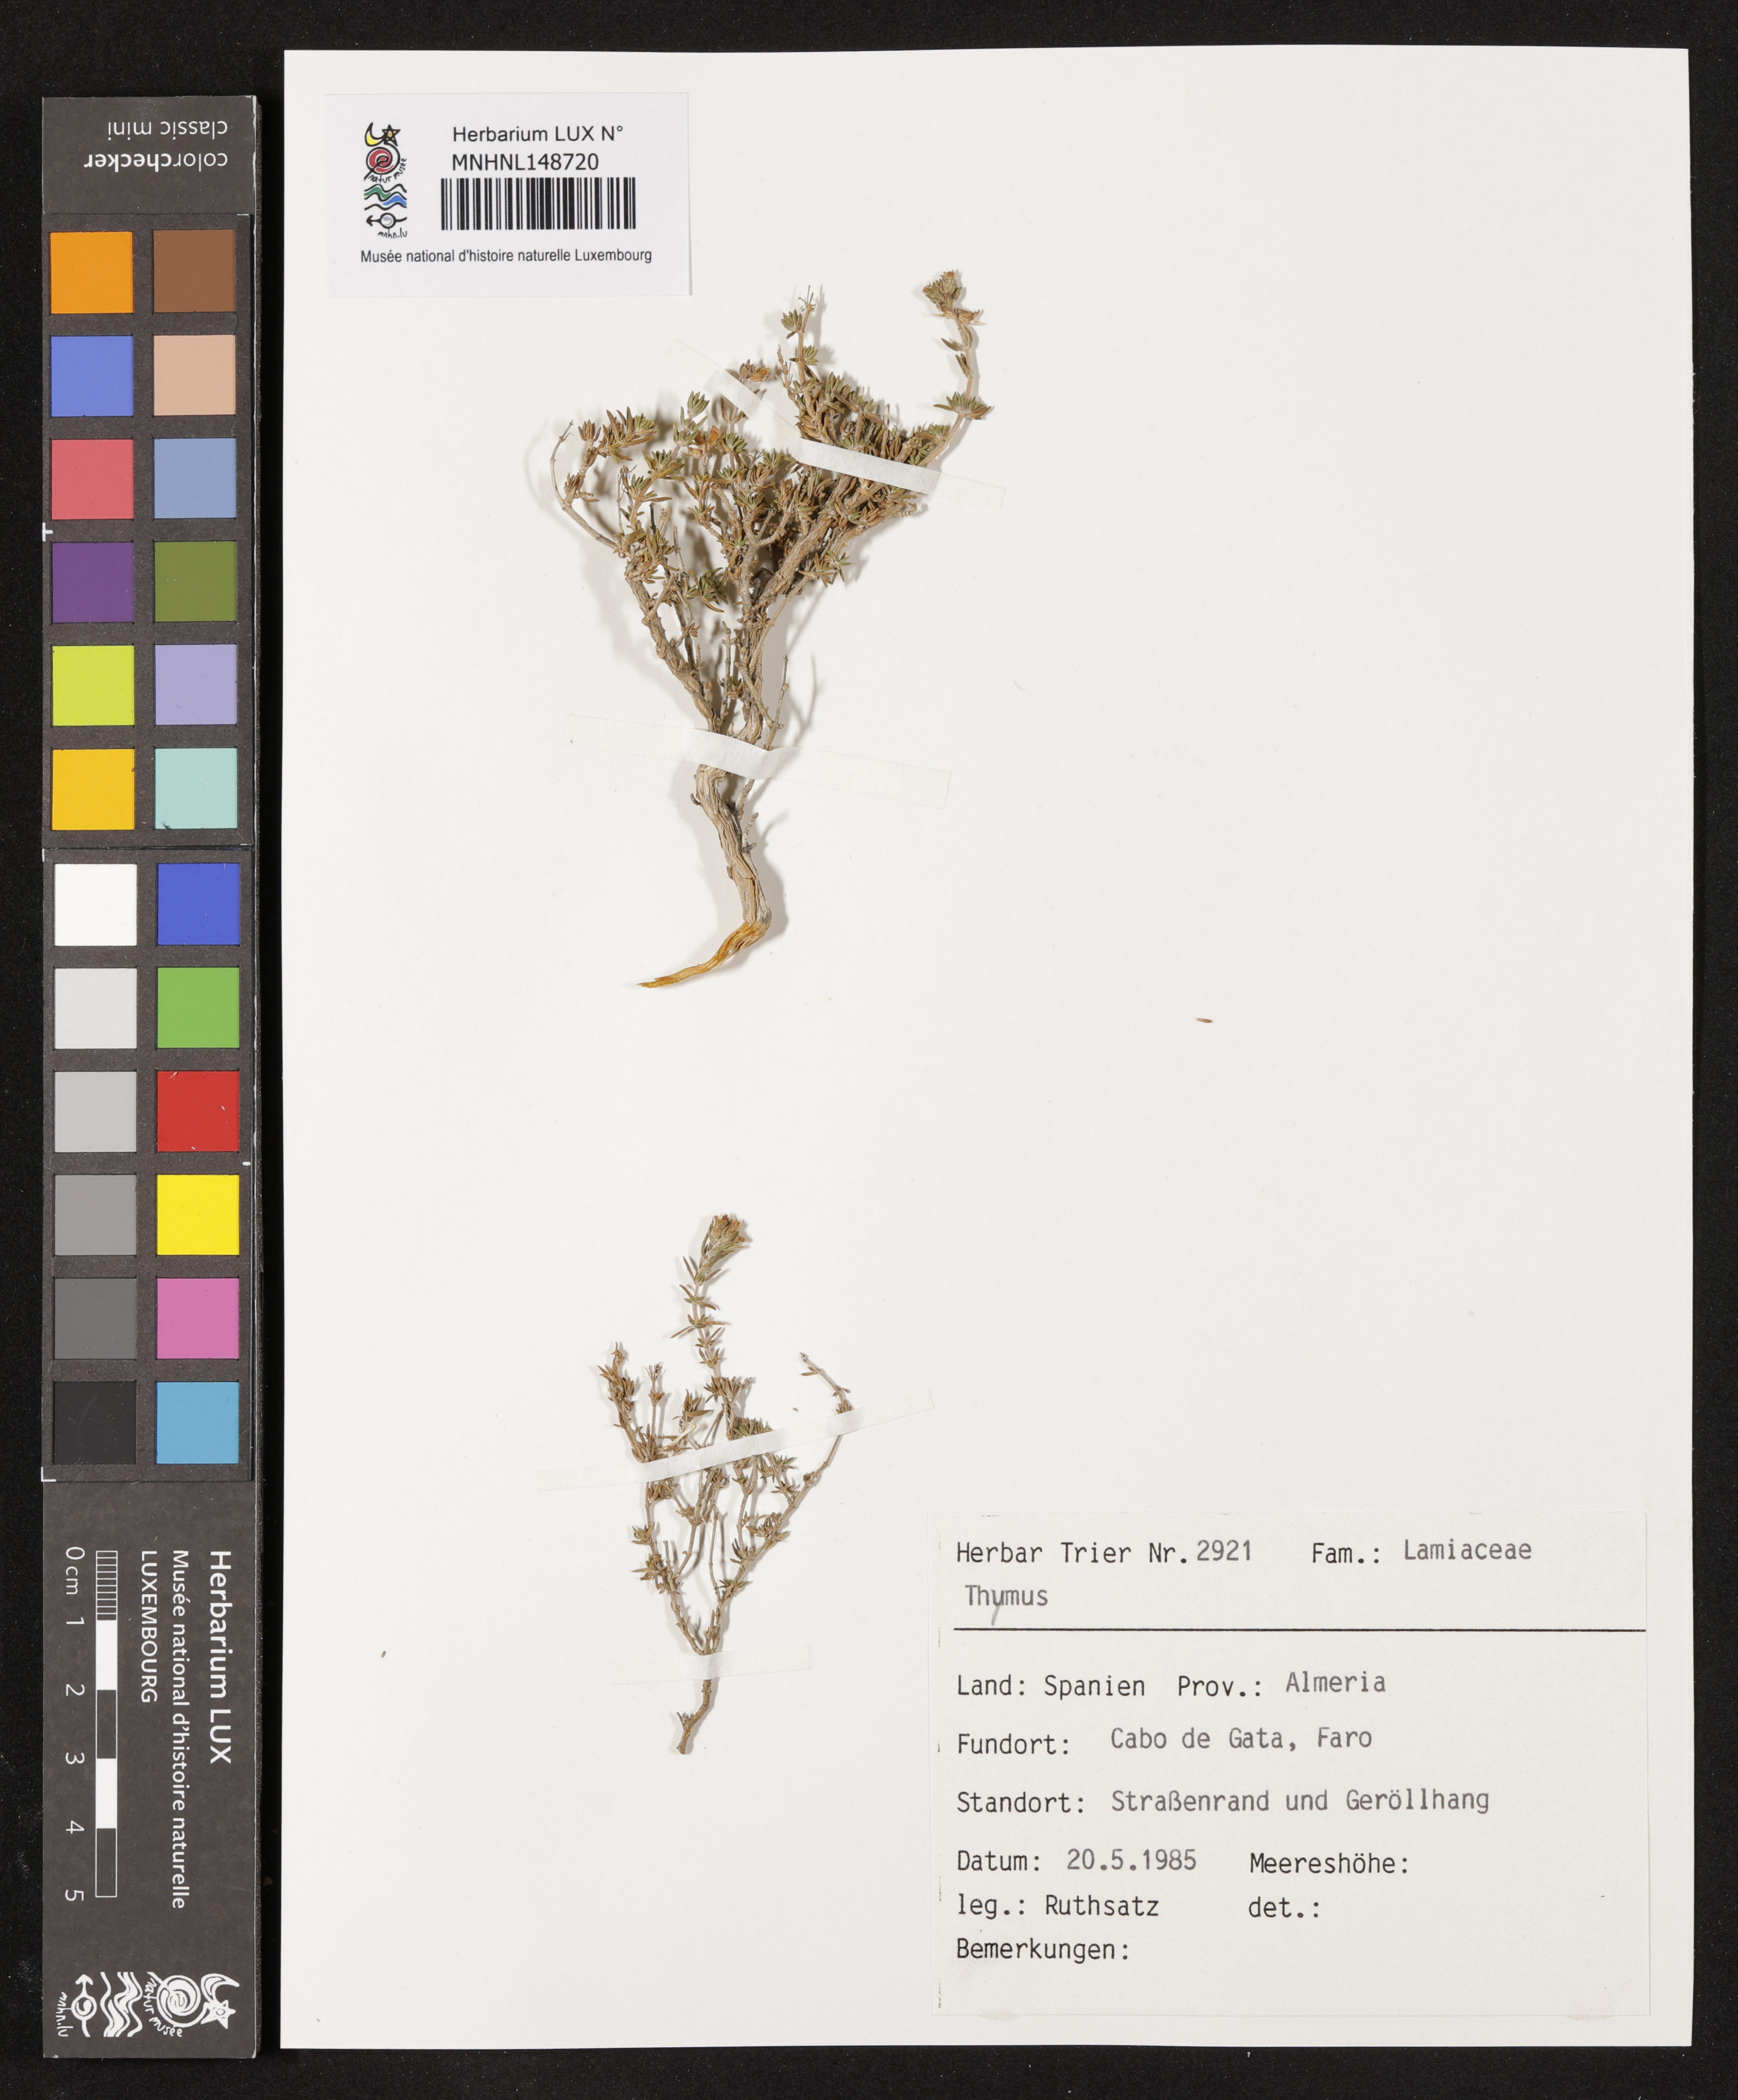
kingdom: Plantae
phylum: Tracheophyta
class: Magnoliopsida
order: Lamiales
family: Lamiaceae
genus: Thymus
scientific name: Thymus
